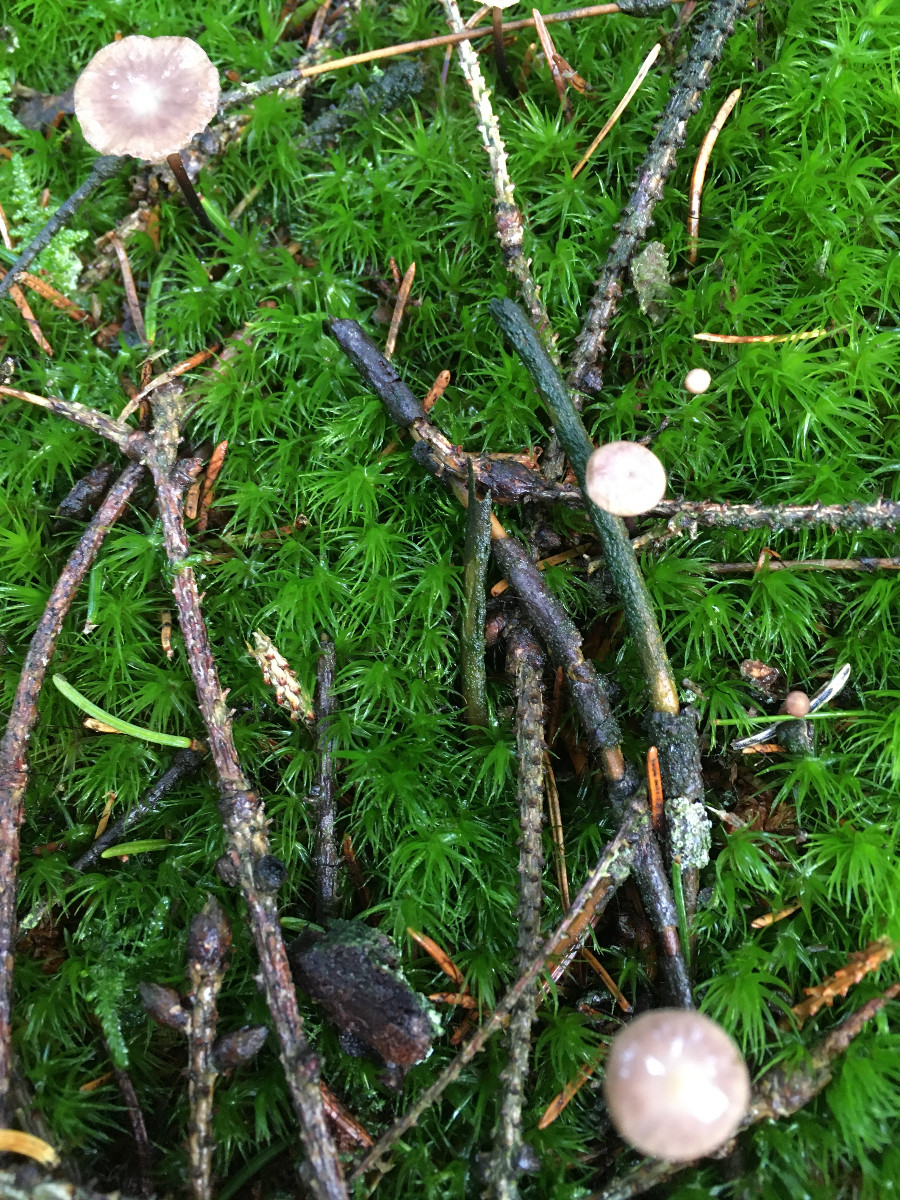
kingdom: Fungi
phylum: Basidiomycota
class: Agaricomycetes
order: Agaricales
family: Omphalotaceae
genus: Paragymnopus
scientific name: Paragymnopus perforans
